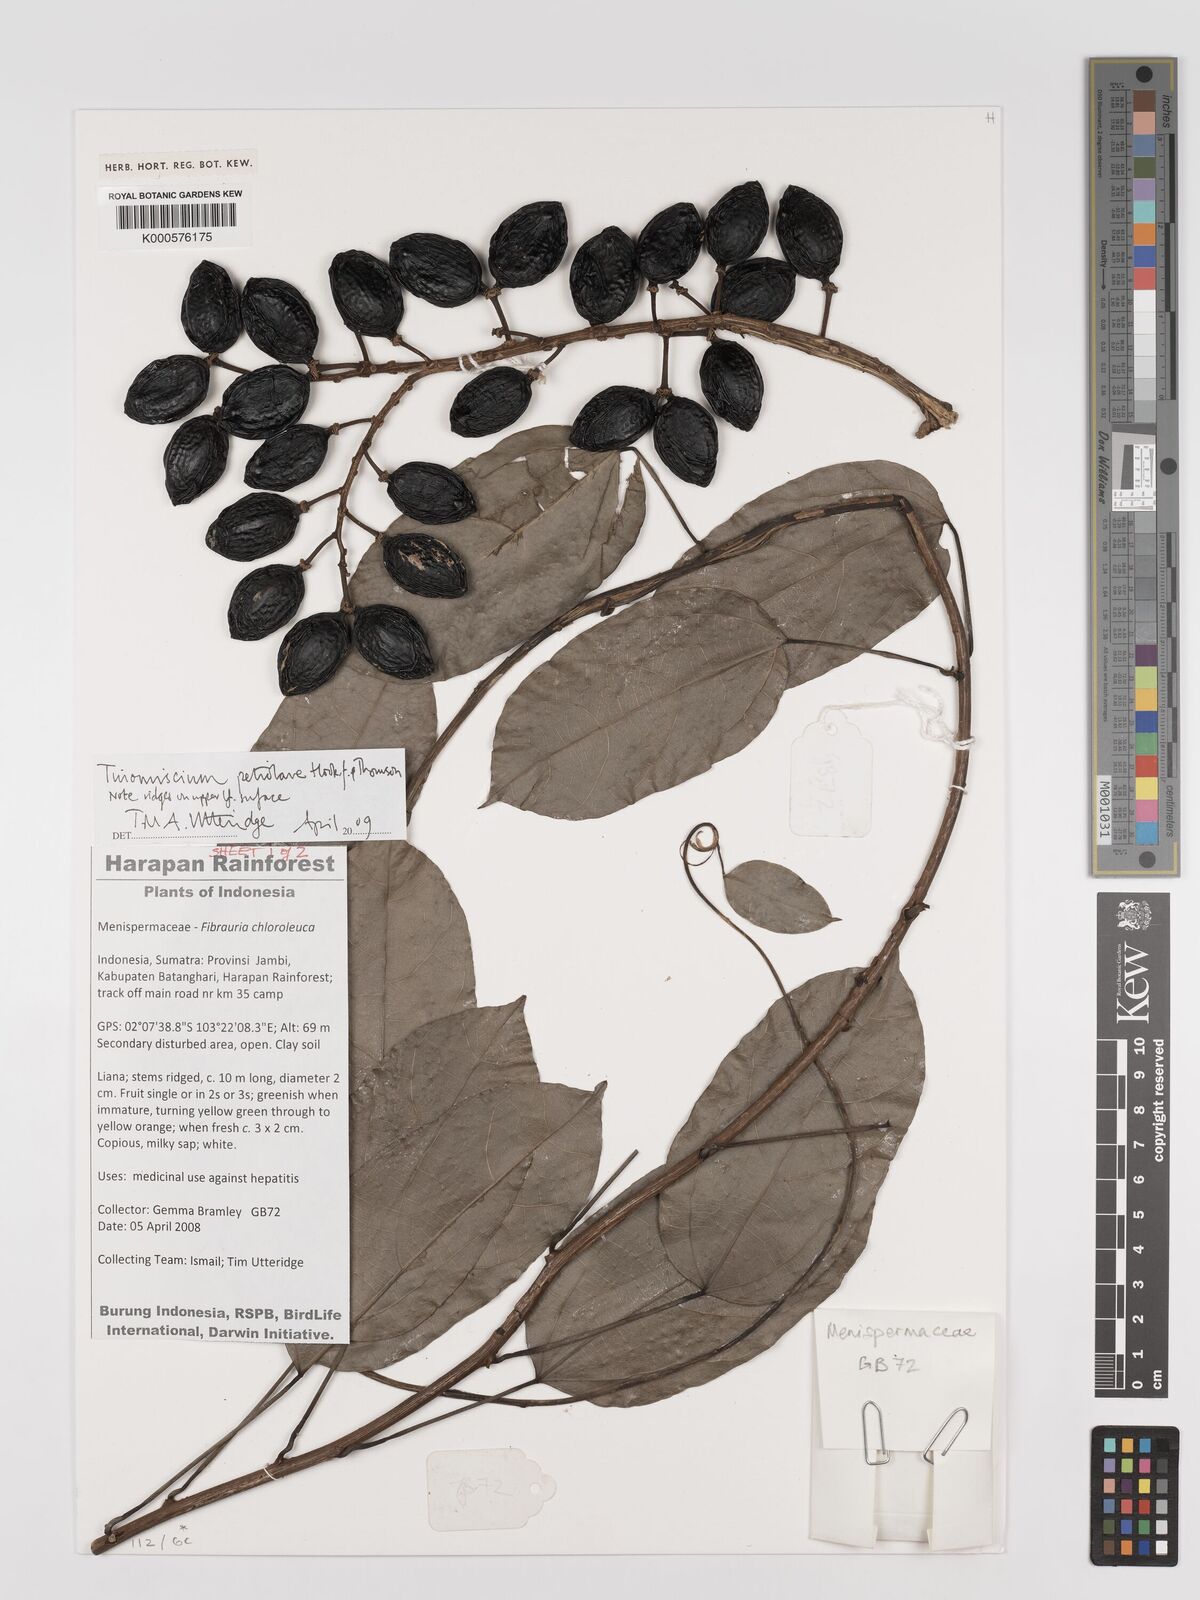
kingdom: Plantae
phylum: Tracheophyta
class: Magnoliopsida
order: Ranunculales
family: Menispermaceae
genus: Tinomiscium
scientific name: Tinomiscium petiolare
